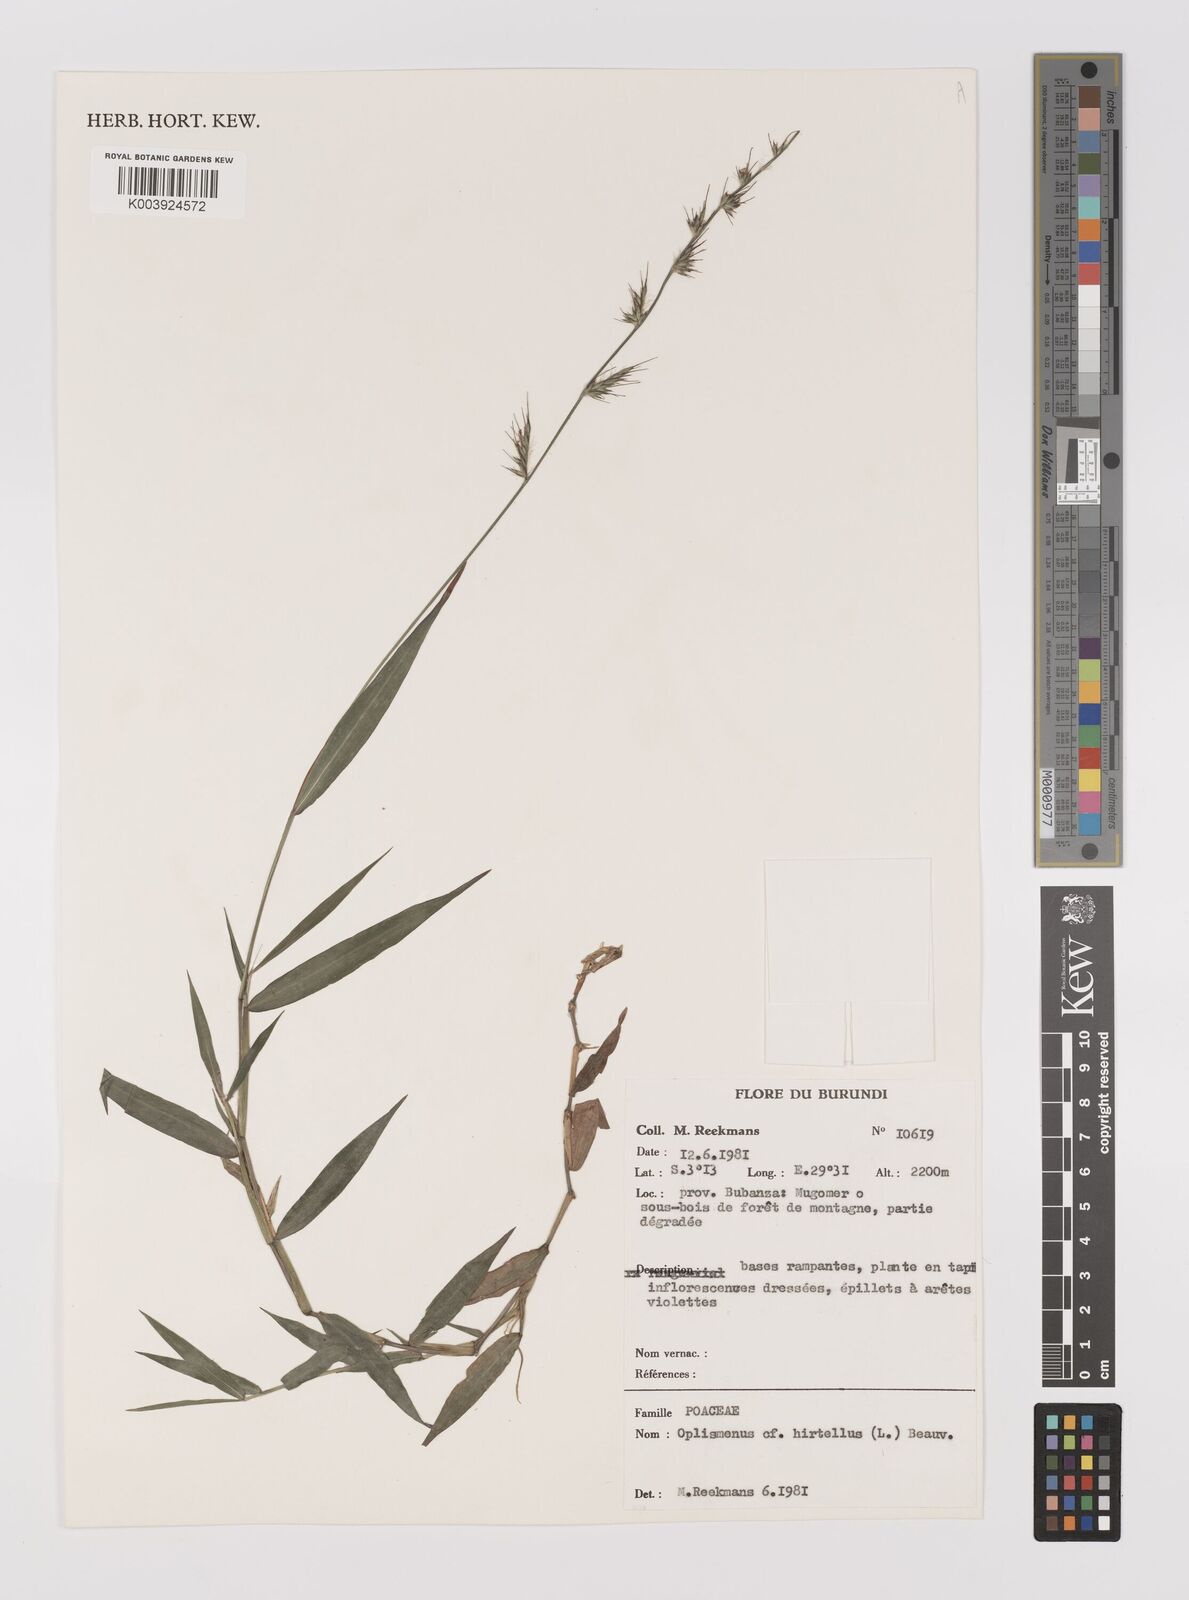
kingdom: Plantae
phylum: Tracheophyta
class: Liliopsida
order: Poales
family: Poaceae
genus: Oplismenus
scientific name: Oplismenus hirtellus
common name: Basketgrass
